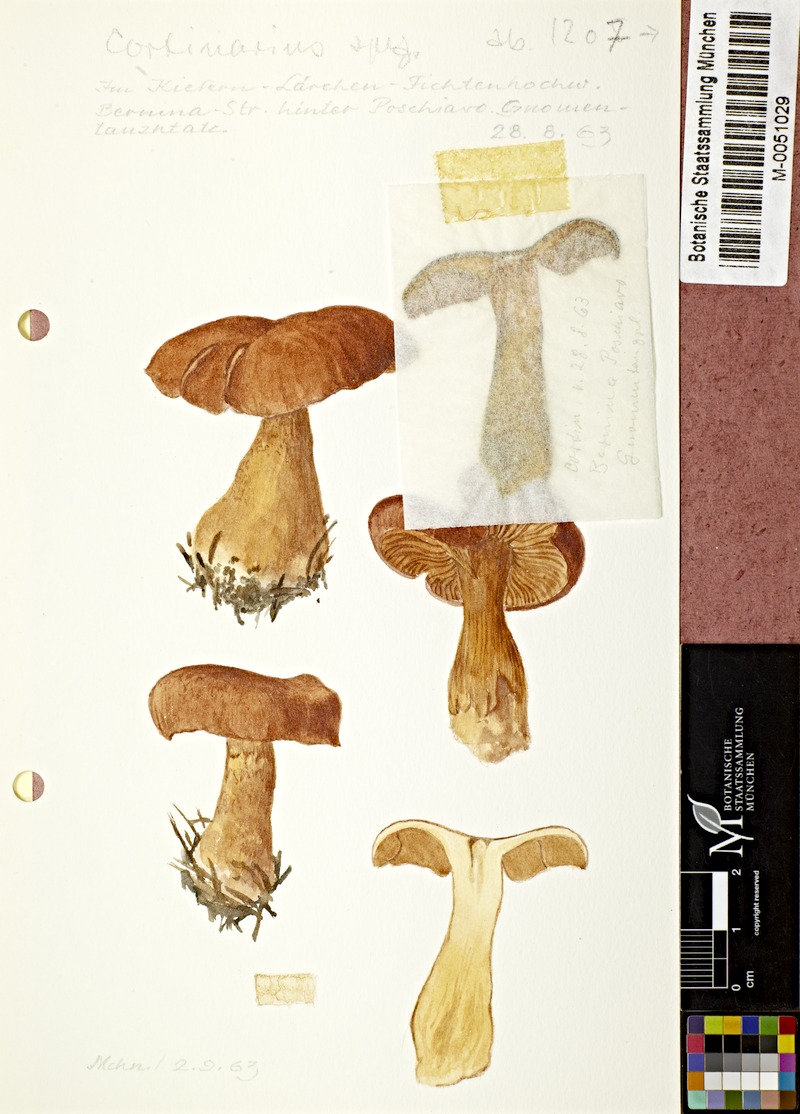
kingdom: Fungi
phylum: Basidiomycota
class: Agaricomycetes
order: Agaricales
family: Cortinariaceae
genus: Cortinarius
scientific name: Cortinarius
